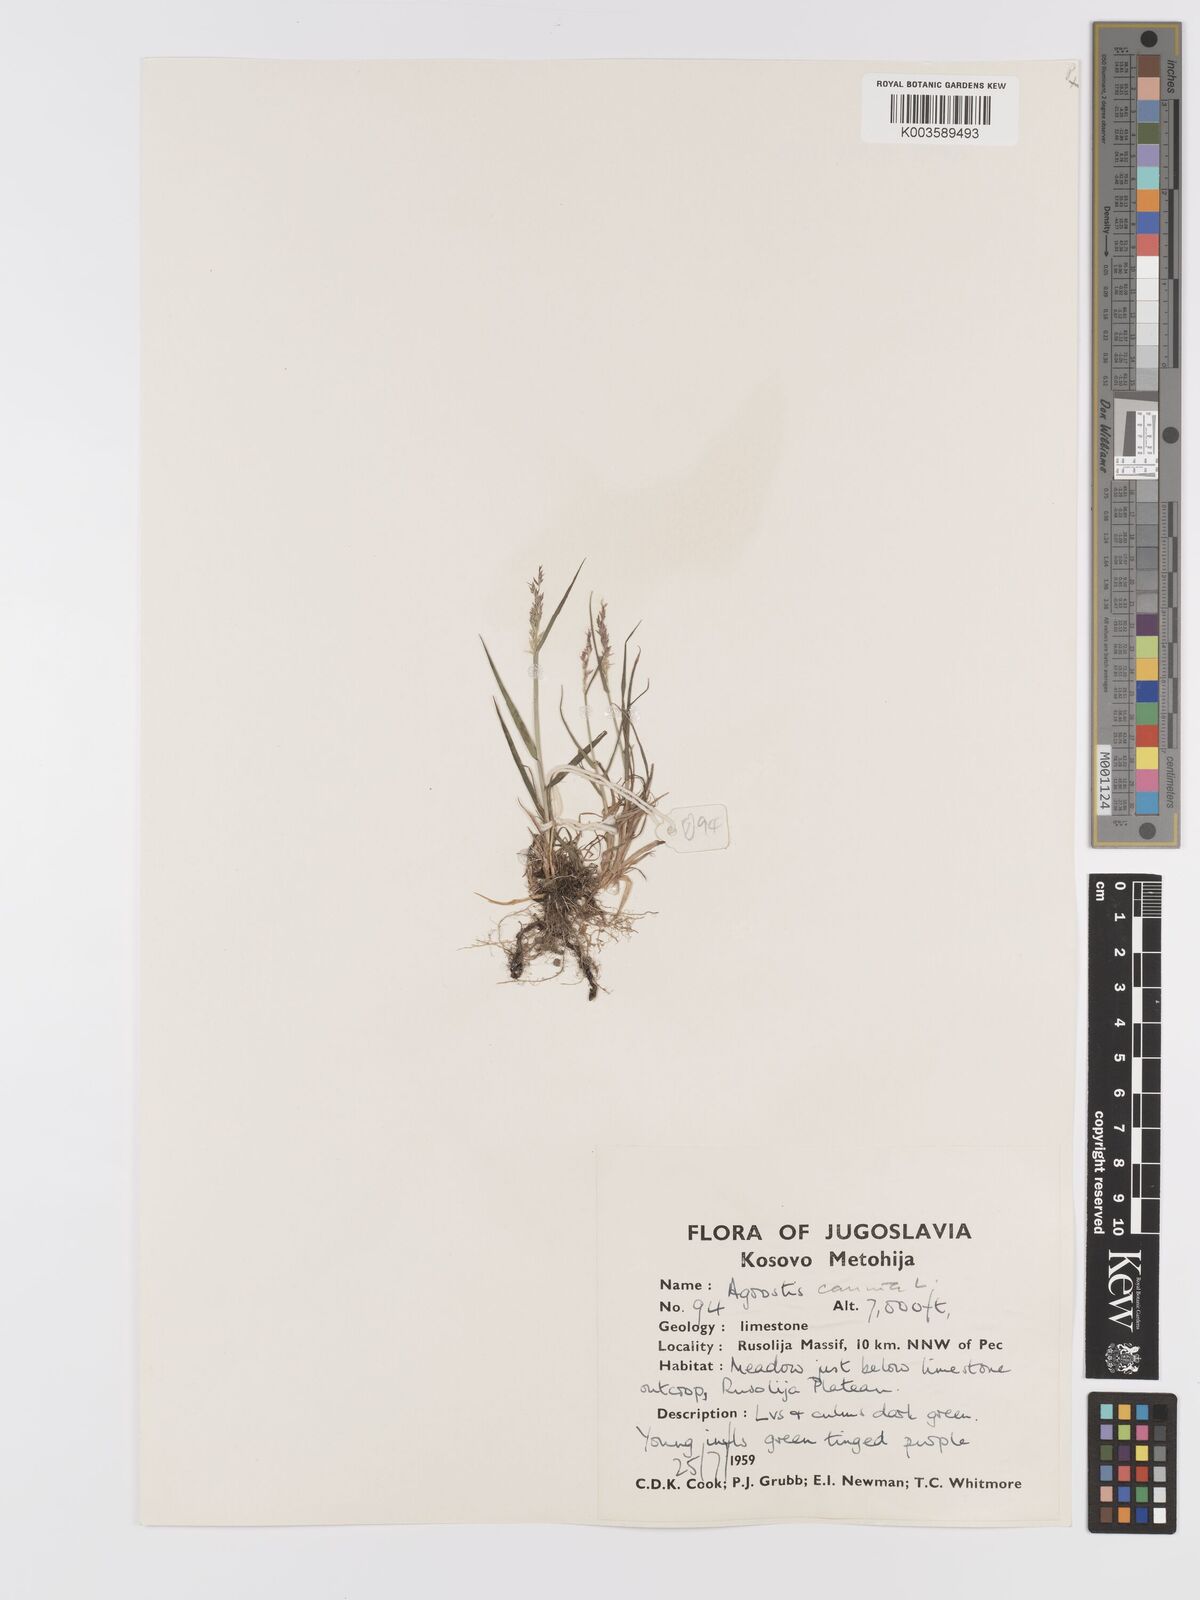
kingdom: Plantae
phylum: Tracheophyta
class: Liliopsida
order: Poales
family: Poaceae
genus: Agrostis
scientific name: Agrostis canina
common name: Velvet bent
